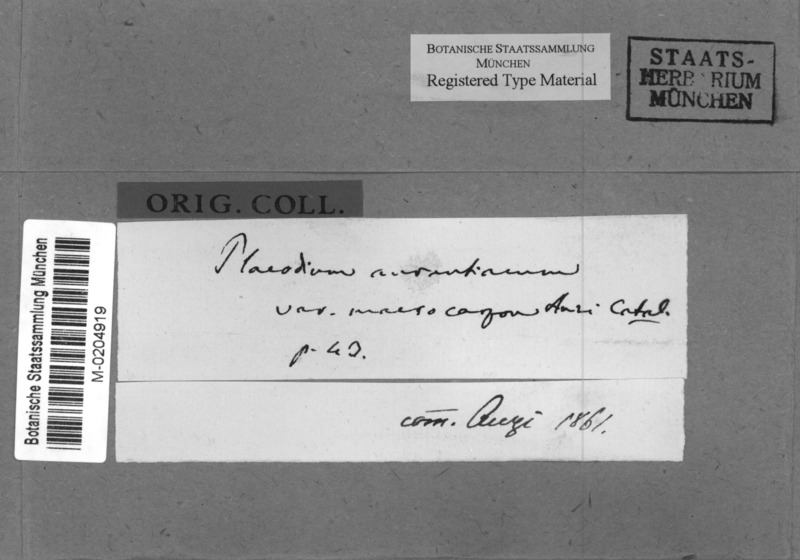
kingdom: Fungi
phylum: Ascomycota
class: Lecanoromycetes
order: Teloschistales
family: Teloschistaceae
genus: Variospora
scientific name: Variospora macrocarpa
